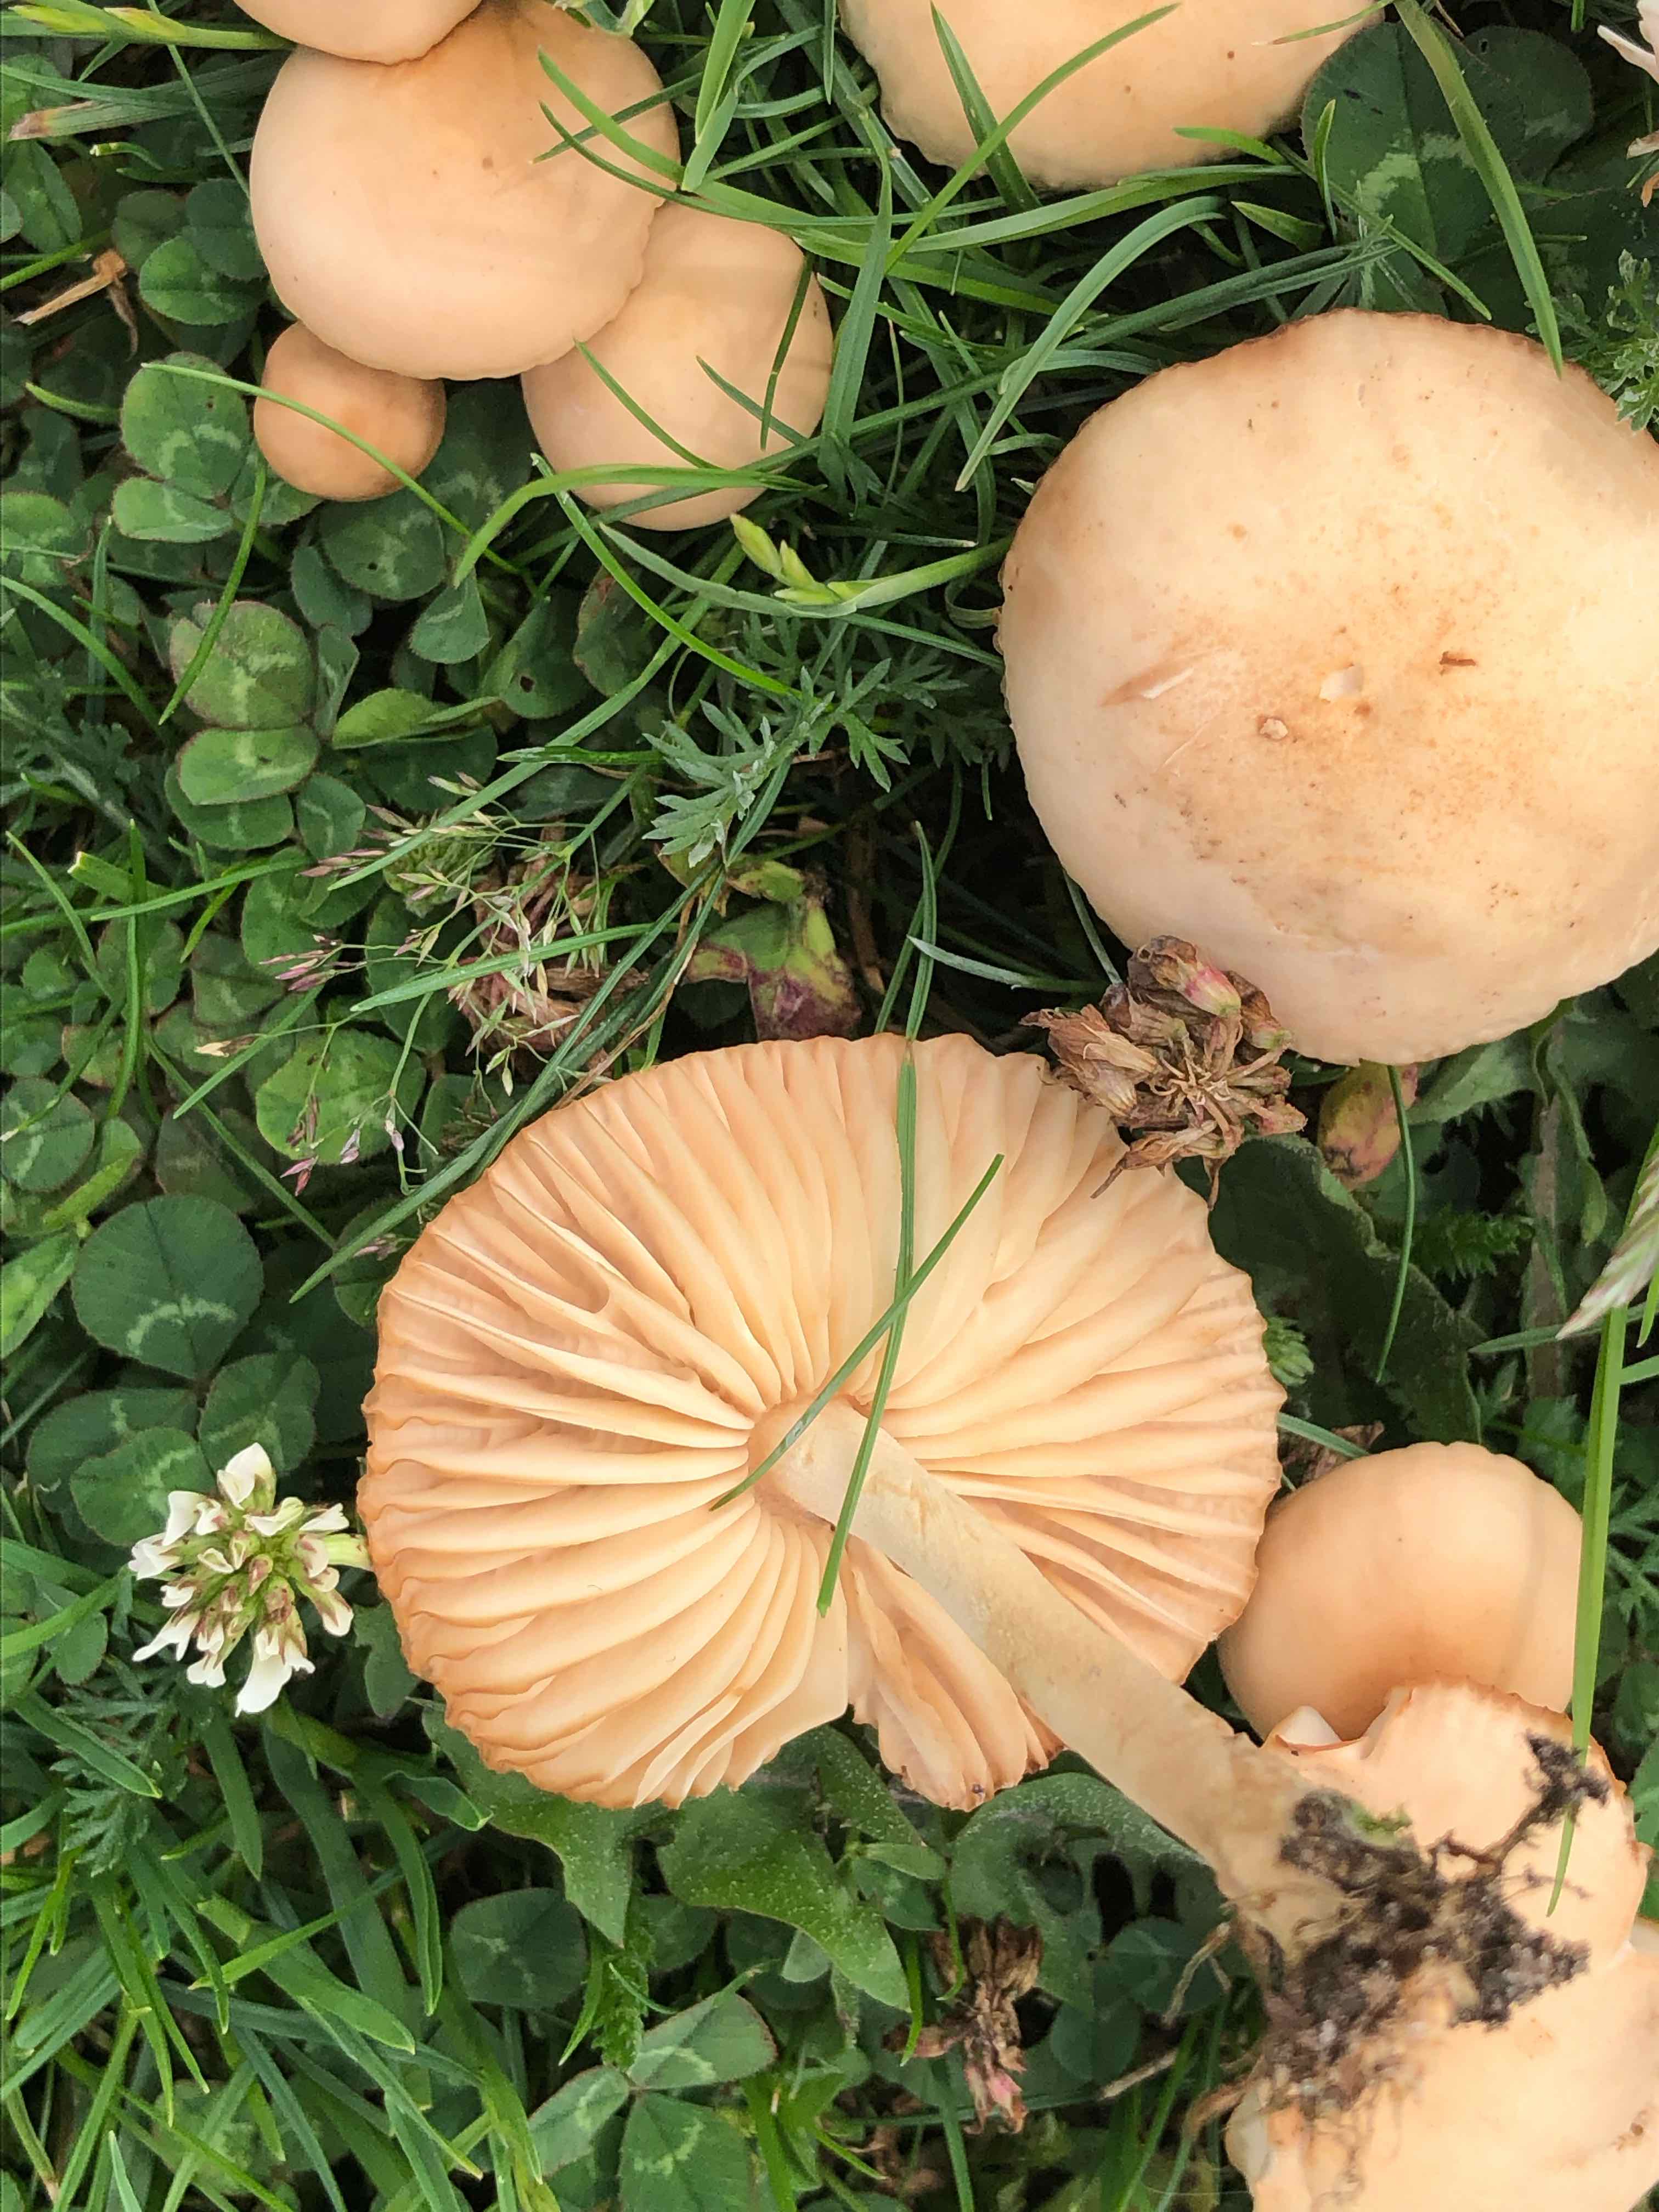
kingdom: Fungi
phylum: Basidiomycota
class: Agaricomycetes
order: Agaricales
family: Marasmiaceae
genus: Marasmius
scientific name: Marasmius oreades
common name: elledans-bruskhat
